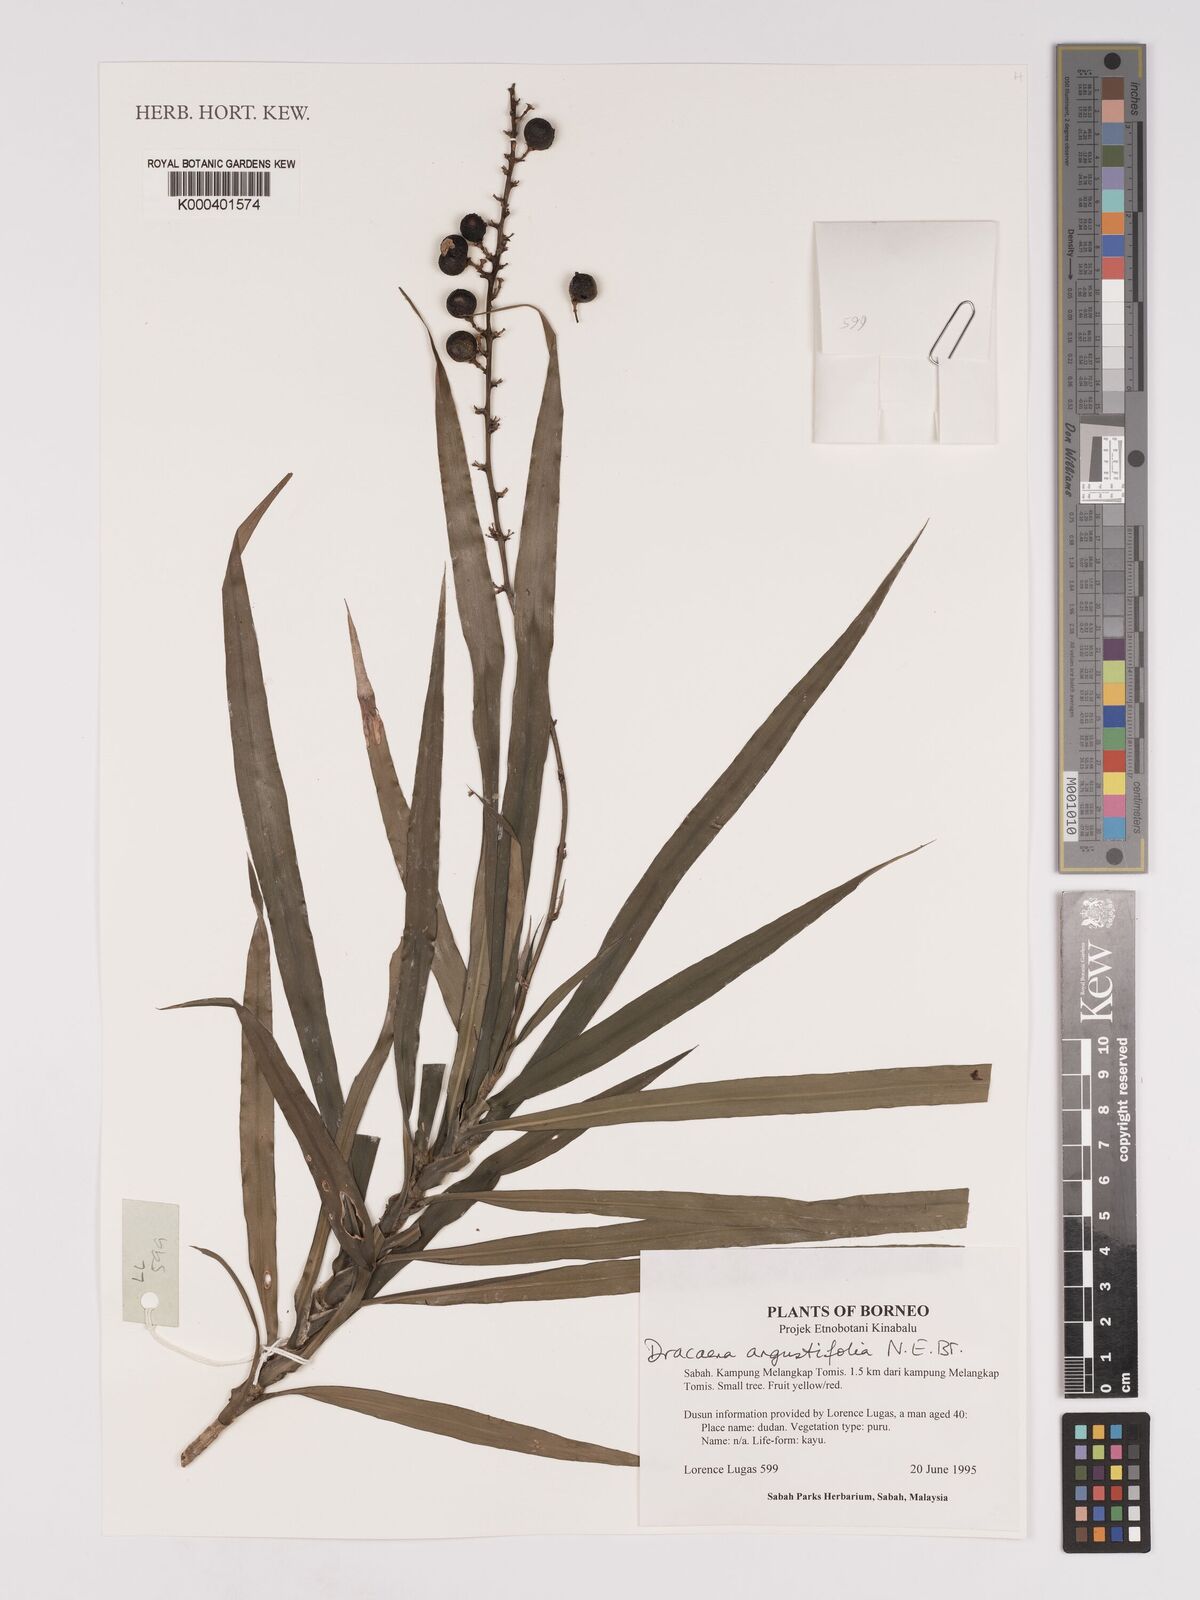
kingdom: Plantae
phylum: Tracheophyta
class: Liliopsida
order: Asparagales
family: Asparagaceae
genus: Dracaena
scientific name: Dracaena angustifolia
